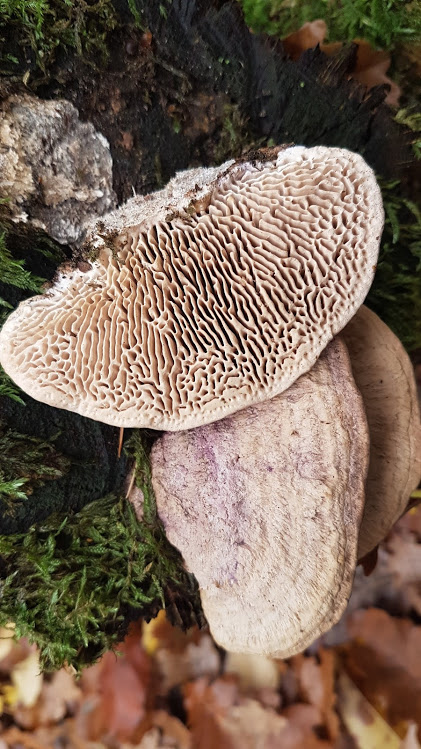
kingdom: Fungi
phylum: Basidiomycota
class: Agaricomycetes
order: Polyporales
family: Fomitopsidaceae
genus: Daedalea
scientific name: Daedalea quercina
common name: ege-labyrintsvamp
